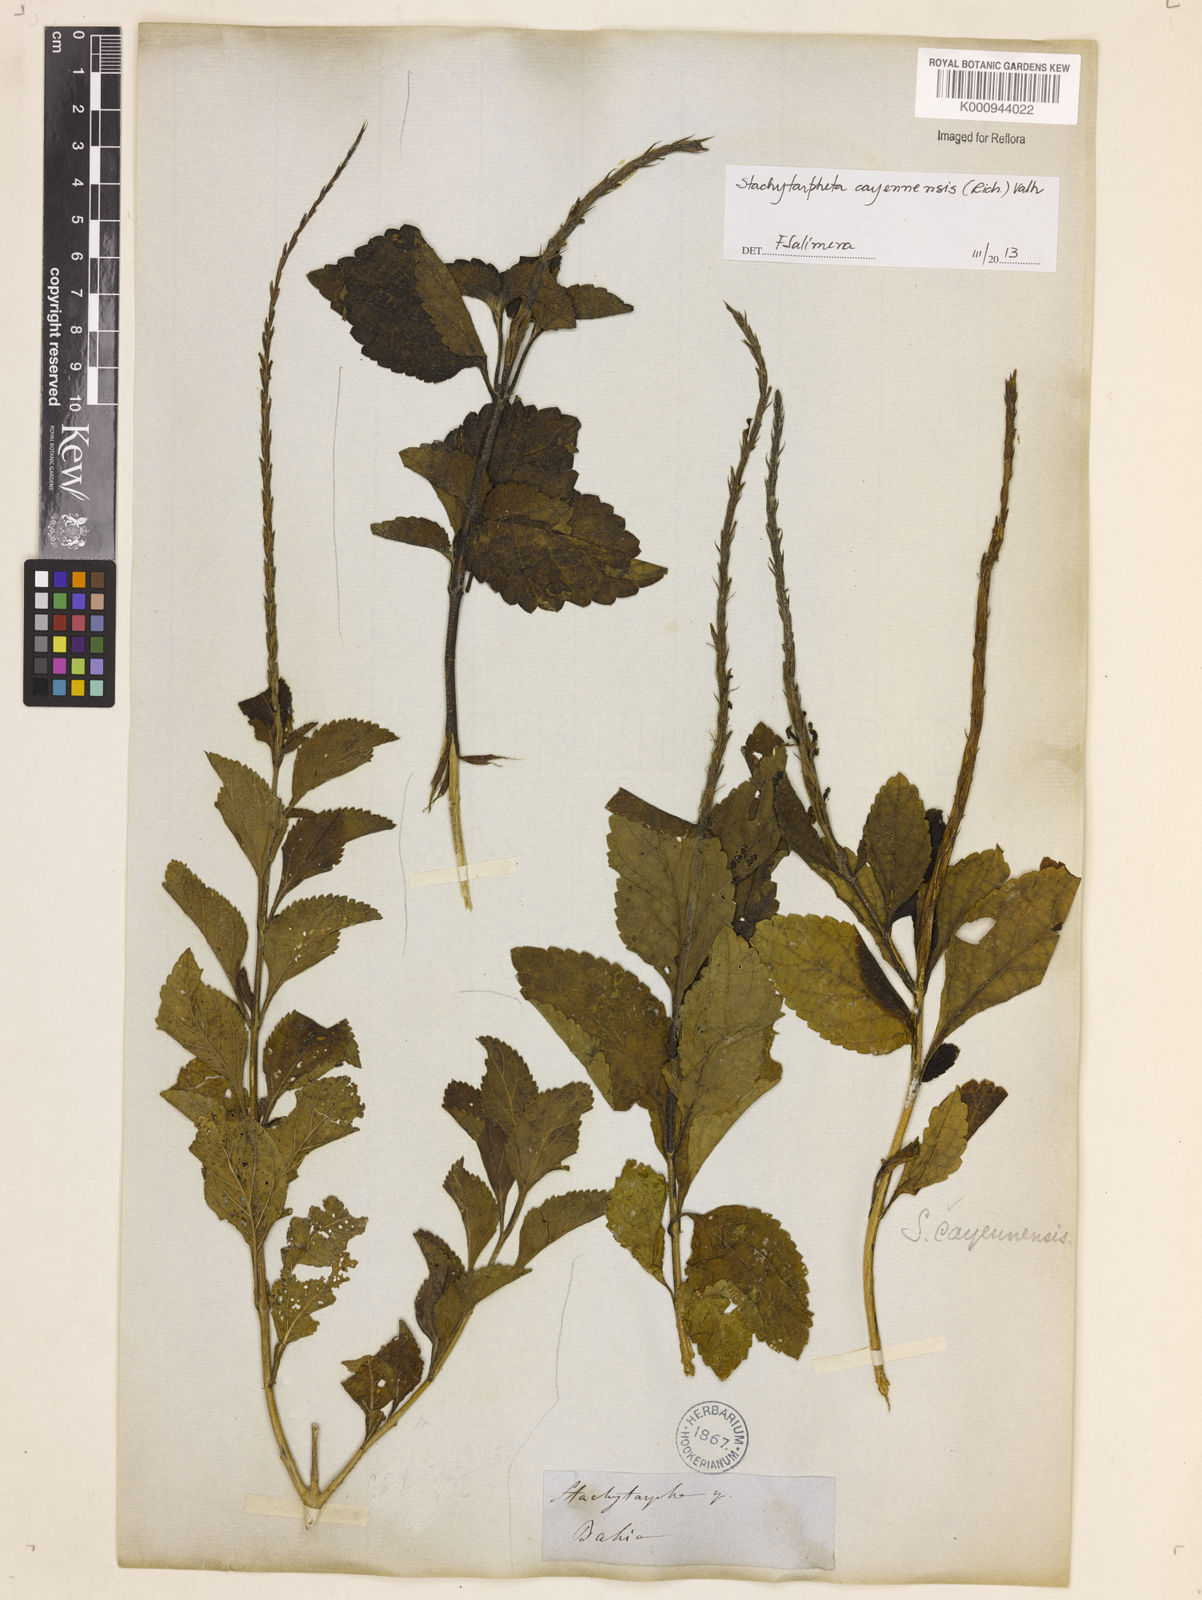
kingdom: Plantae
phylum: Tracheophyta
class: Magnoliopsida
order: Lamiales
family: Verbenaceae
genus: Aloysia
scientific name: Aloysia
